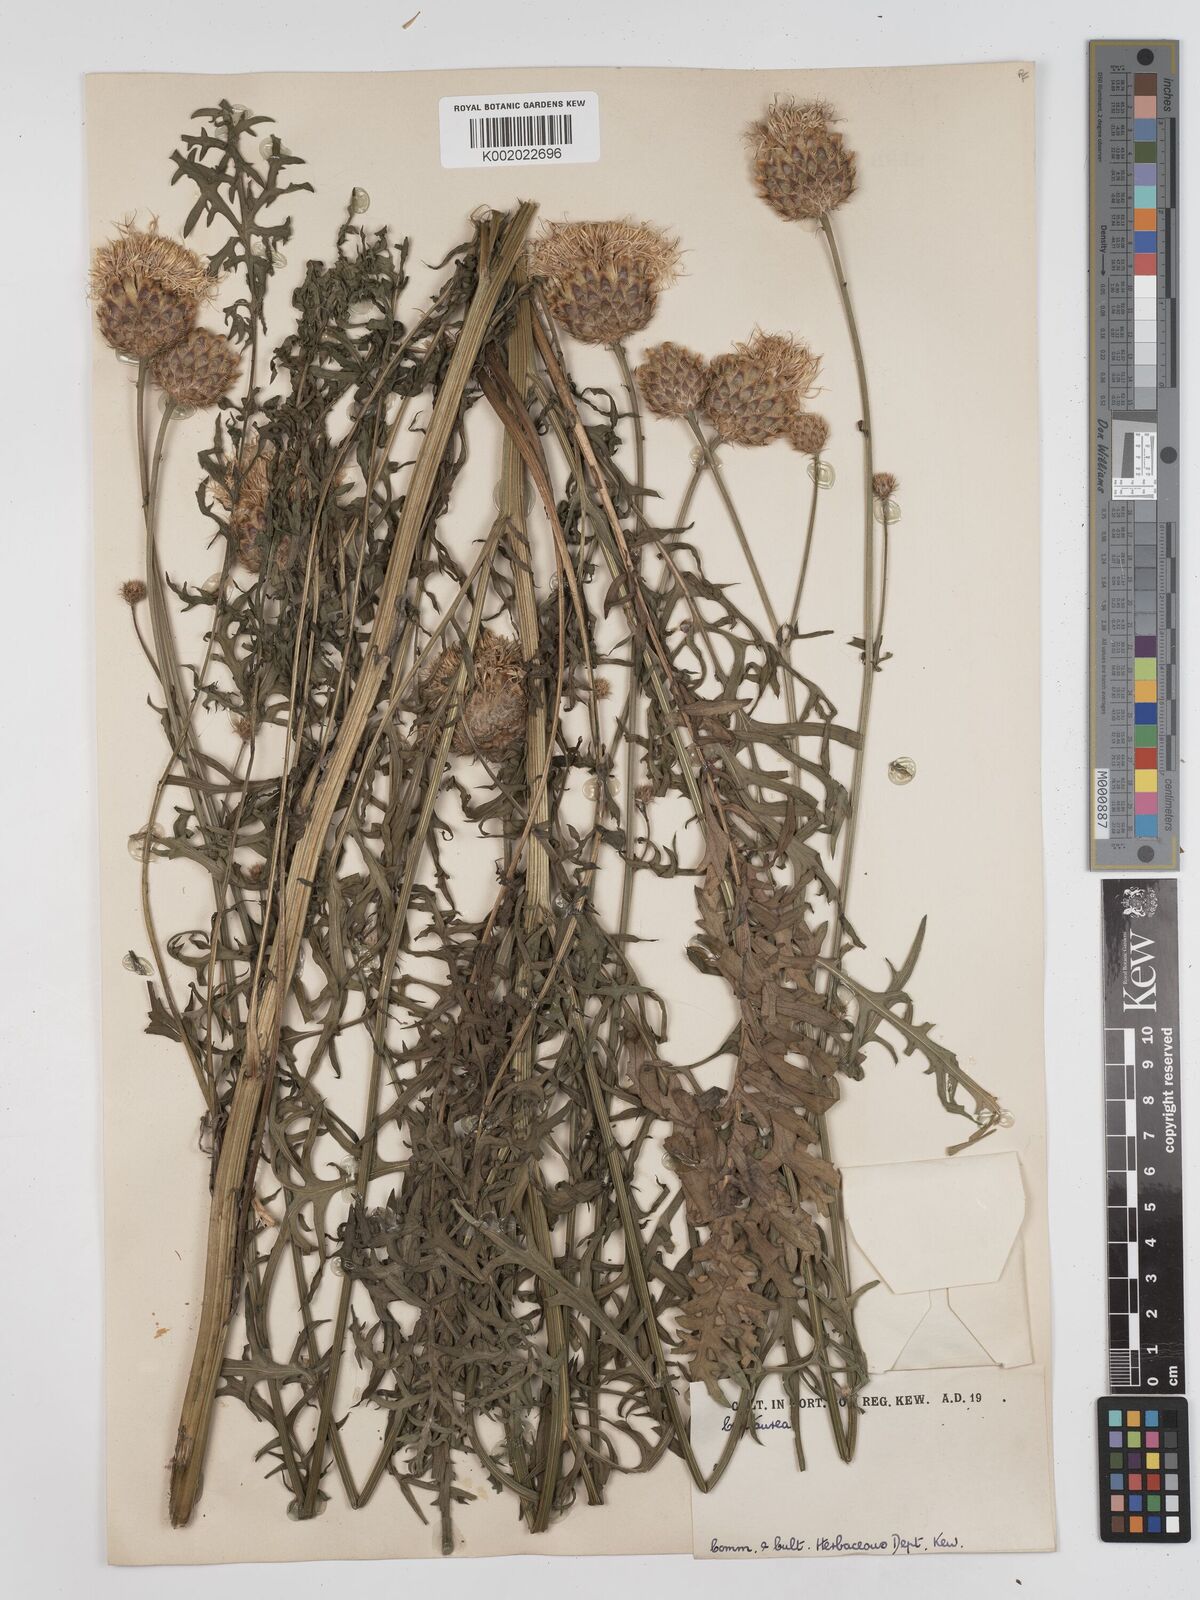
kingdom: Plantae
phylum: Tracheophyta
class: Magnoliopsida
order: Asterales
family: Asteraceae
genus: Centaurea
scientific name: Centaurea calocephala
